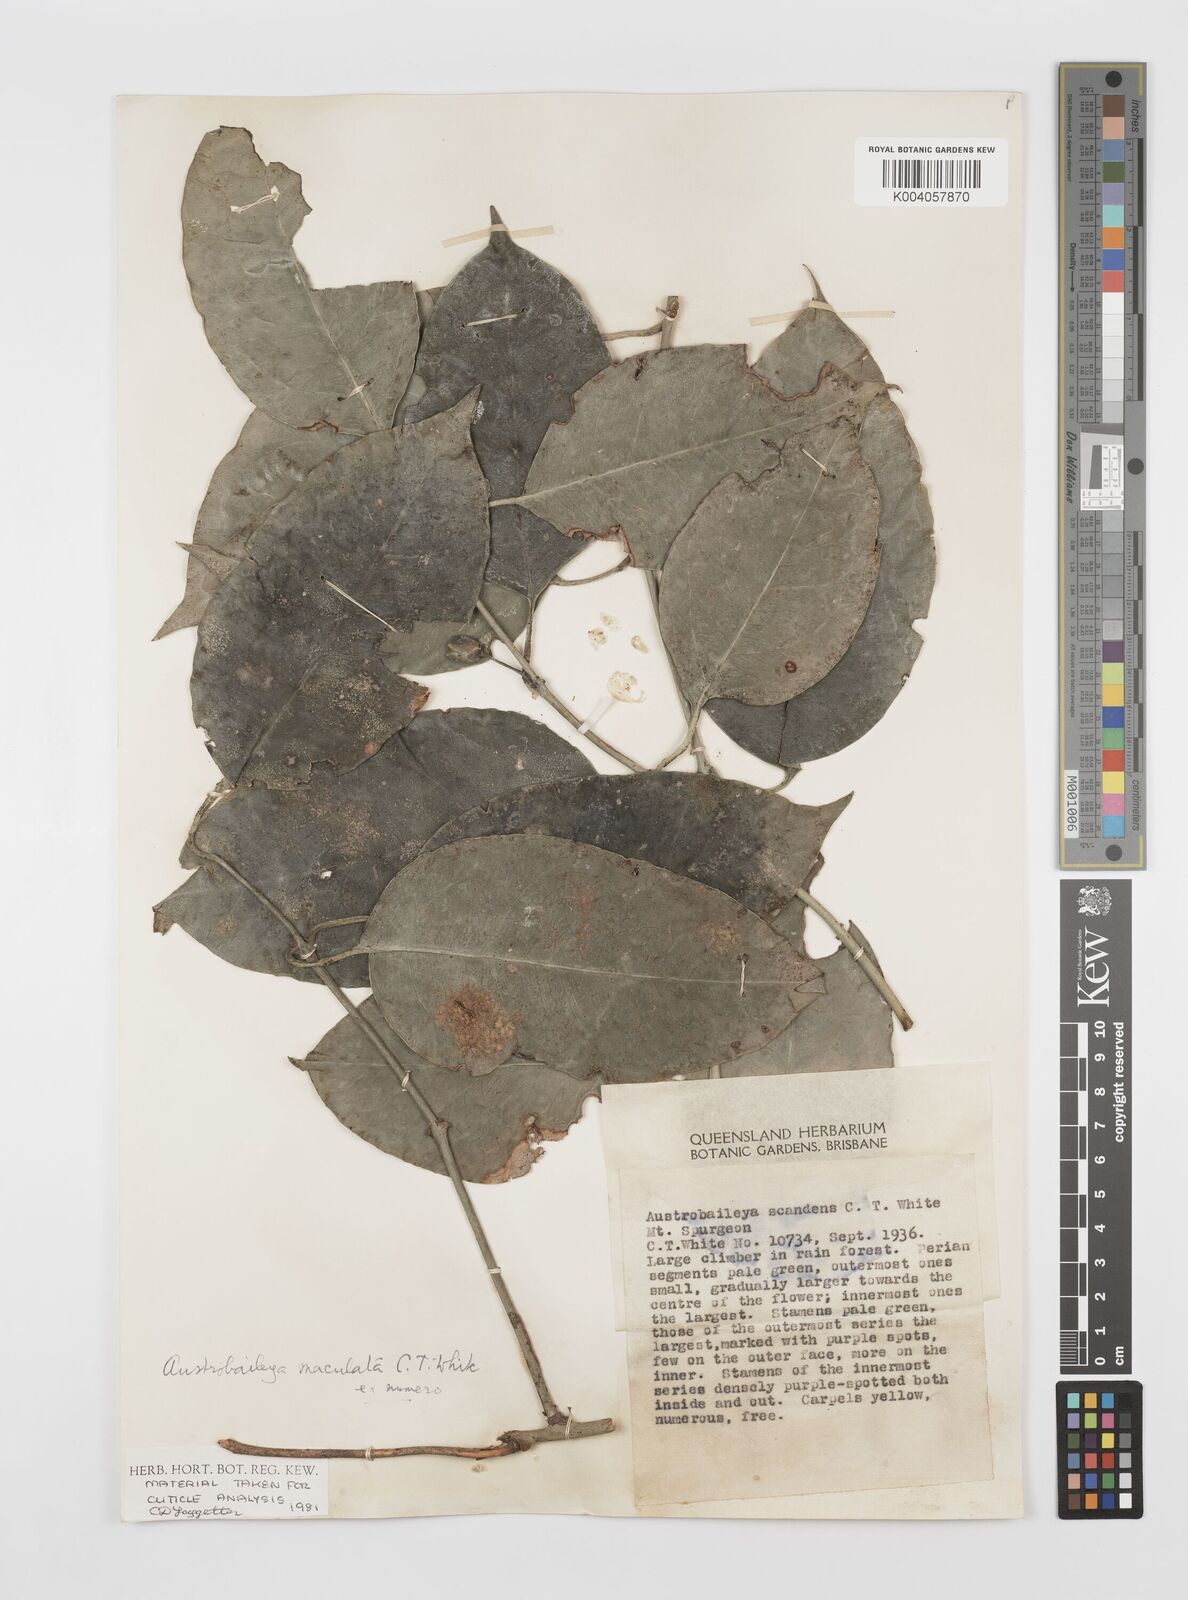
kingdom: Plantae
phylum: Tracheophyta
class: Magnoliopsida
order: Austrobaileyales
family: Austrobaileyaceae
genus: Austrobaileya
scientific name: Austrobaileya scandens
